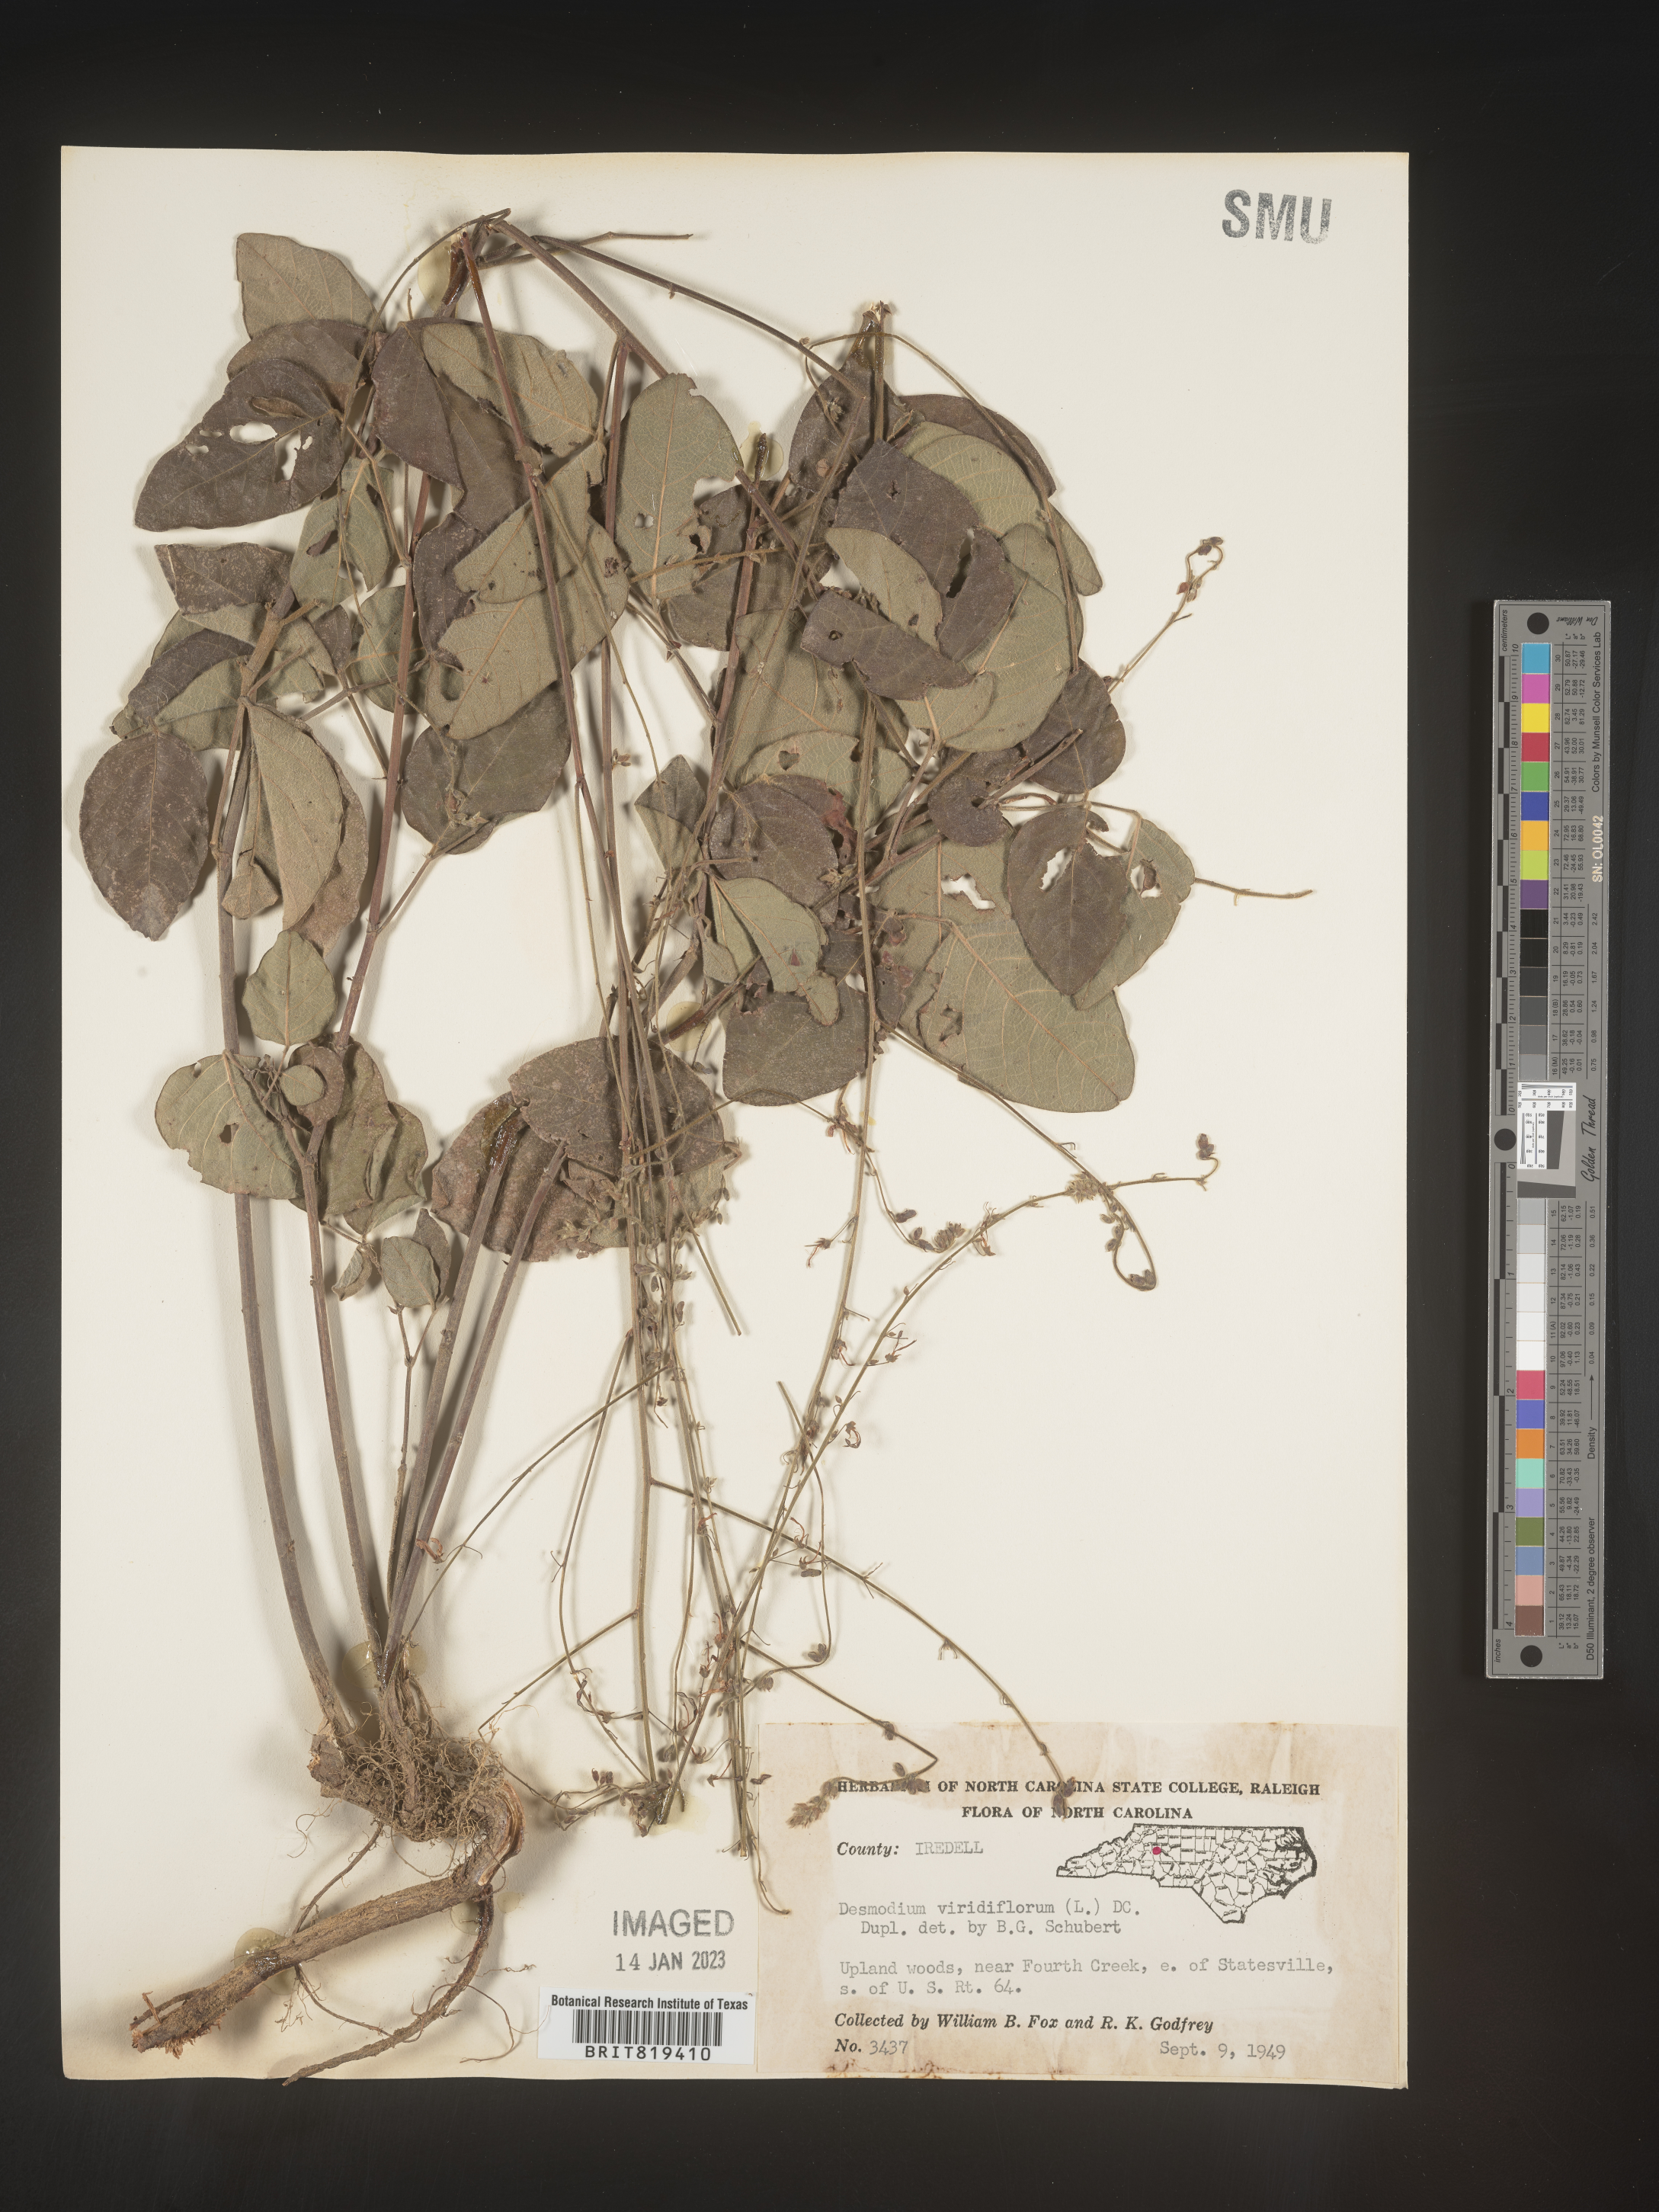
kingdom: Plantae
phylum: Tracheophyta
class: Magnoliopsida
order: Fabales
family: Fabaceae
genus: Desmodium
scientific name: Desmodium viridiflorum
